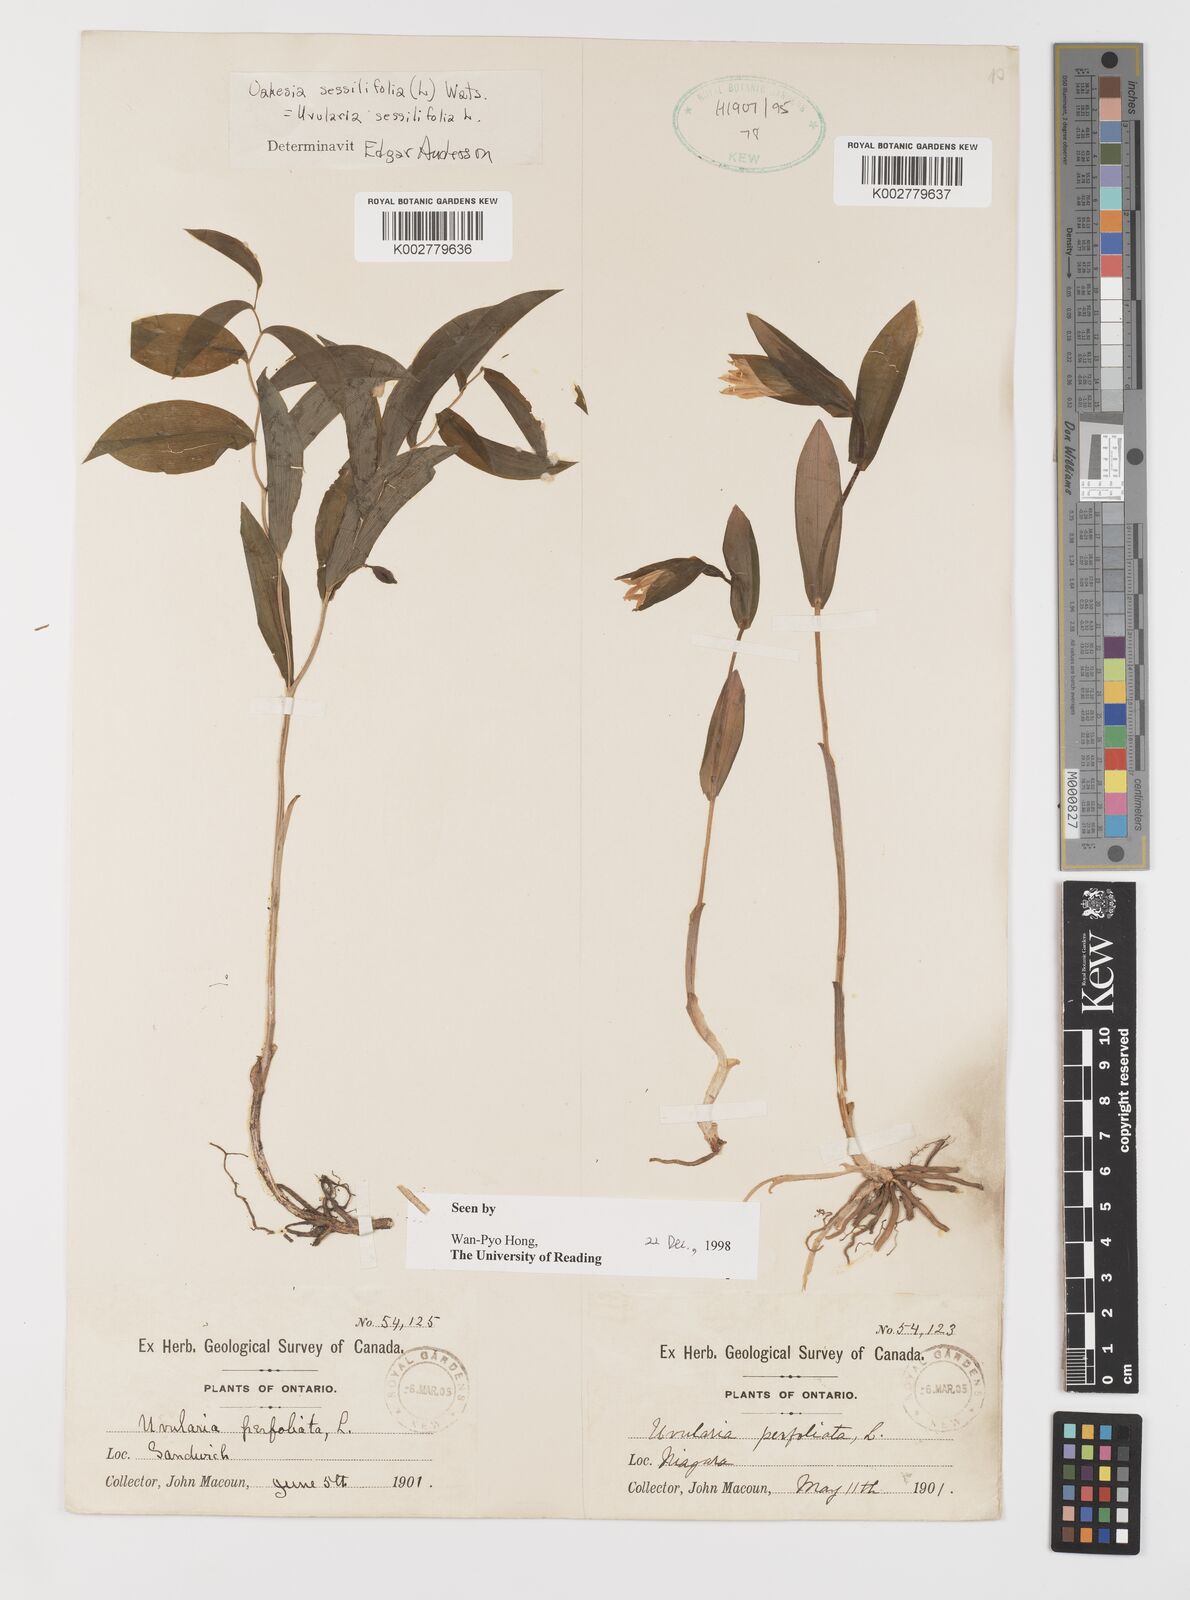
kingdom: Plantae
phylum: Tracheophyta
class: Liliopsida
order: Liliales
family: Colchicaceae
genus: Uvularia
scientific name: Uvularia sessilifolia
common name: Straw-lily
